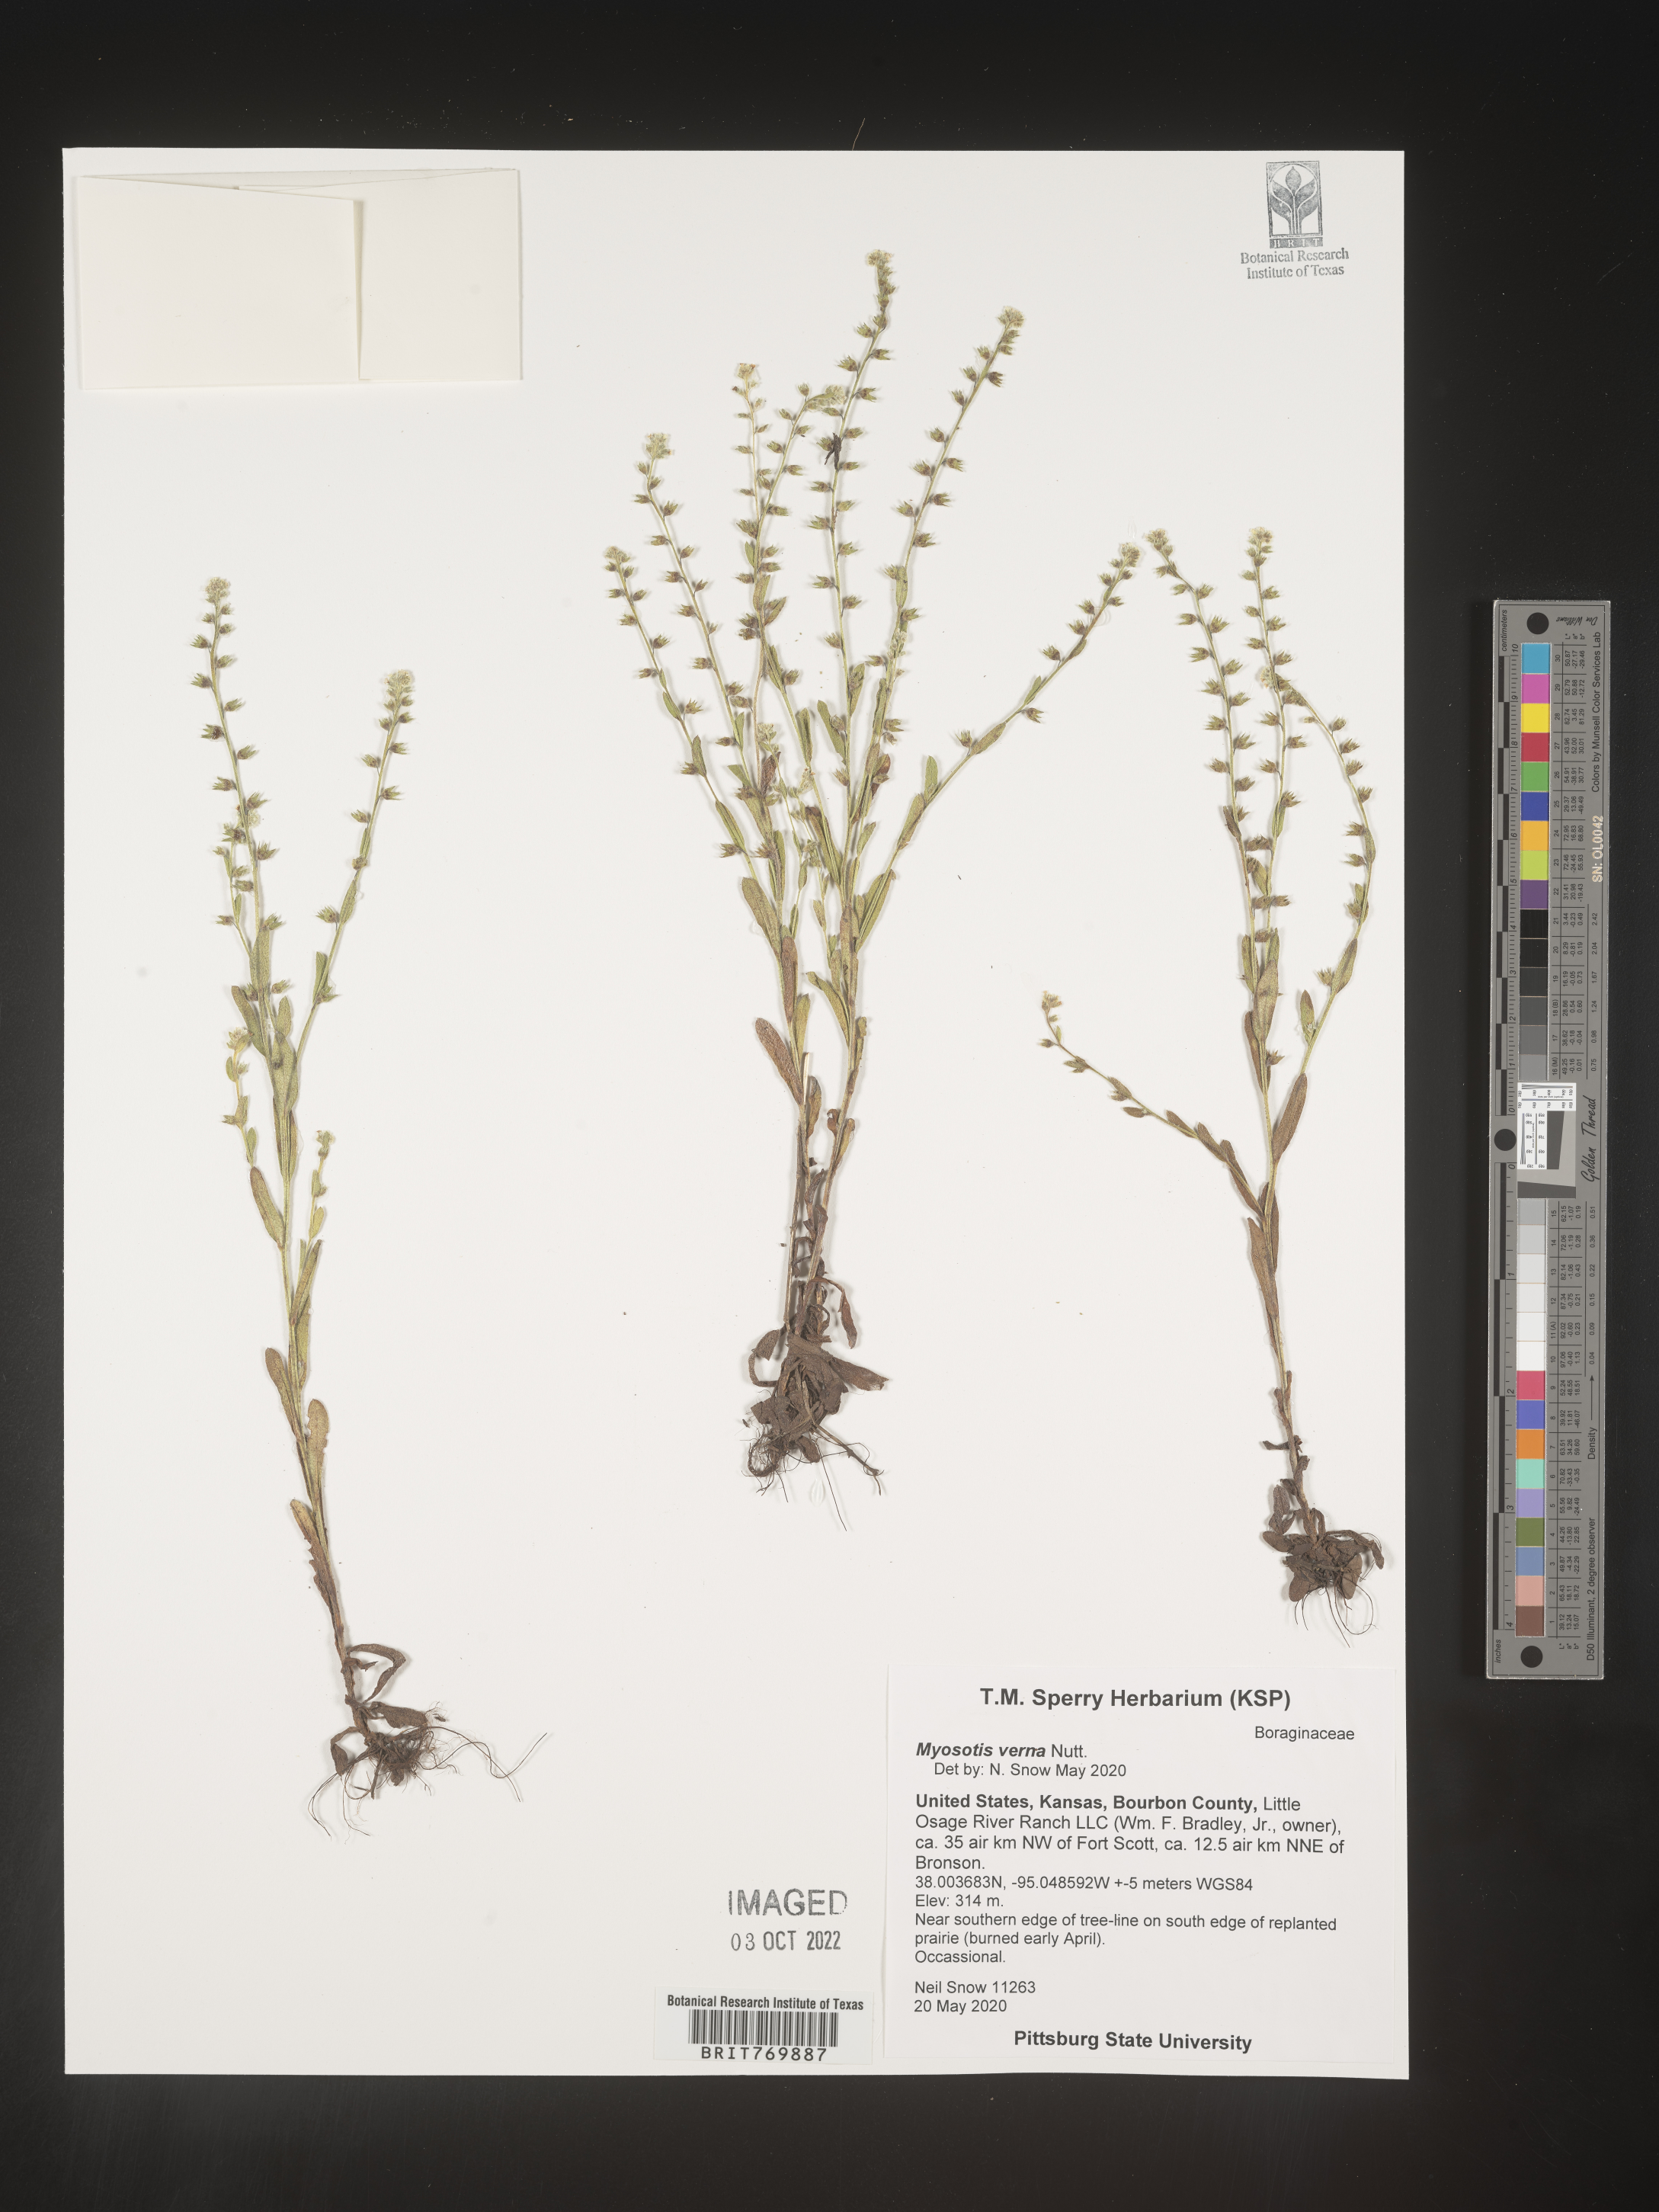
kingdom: Plantae
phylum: Tracheophyta
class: Magnoliopsida
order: Boraginales
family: Boraginaceae
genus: Myosotis
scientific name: Myosotis verna
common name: Early forget-me-not
